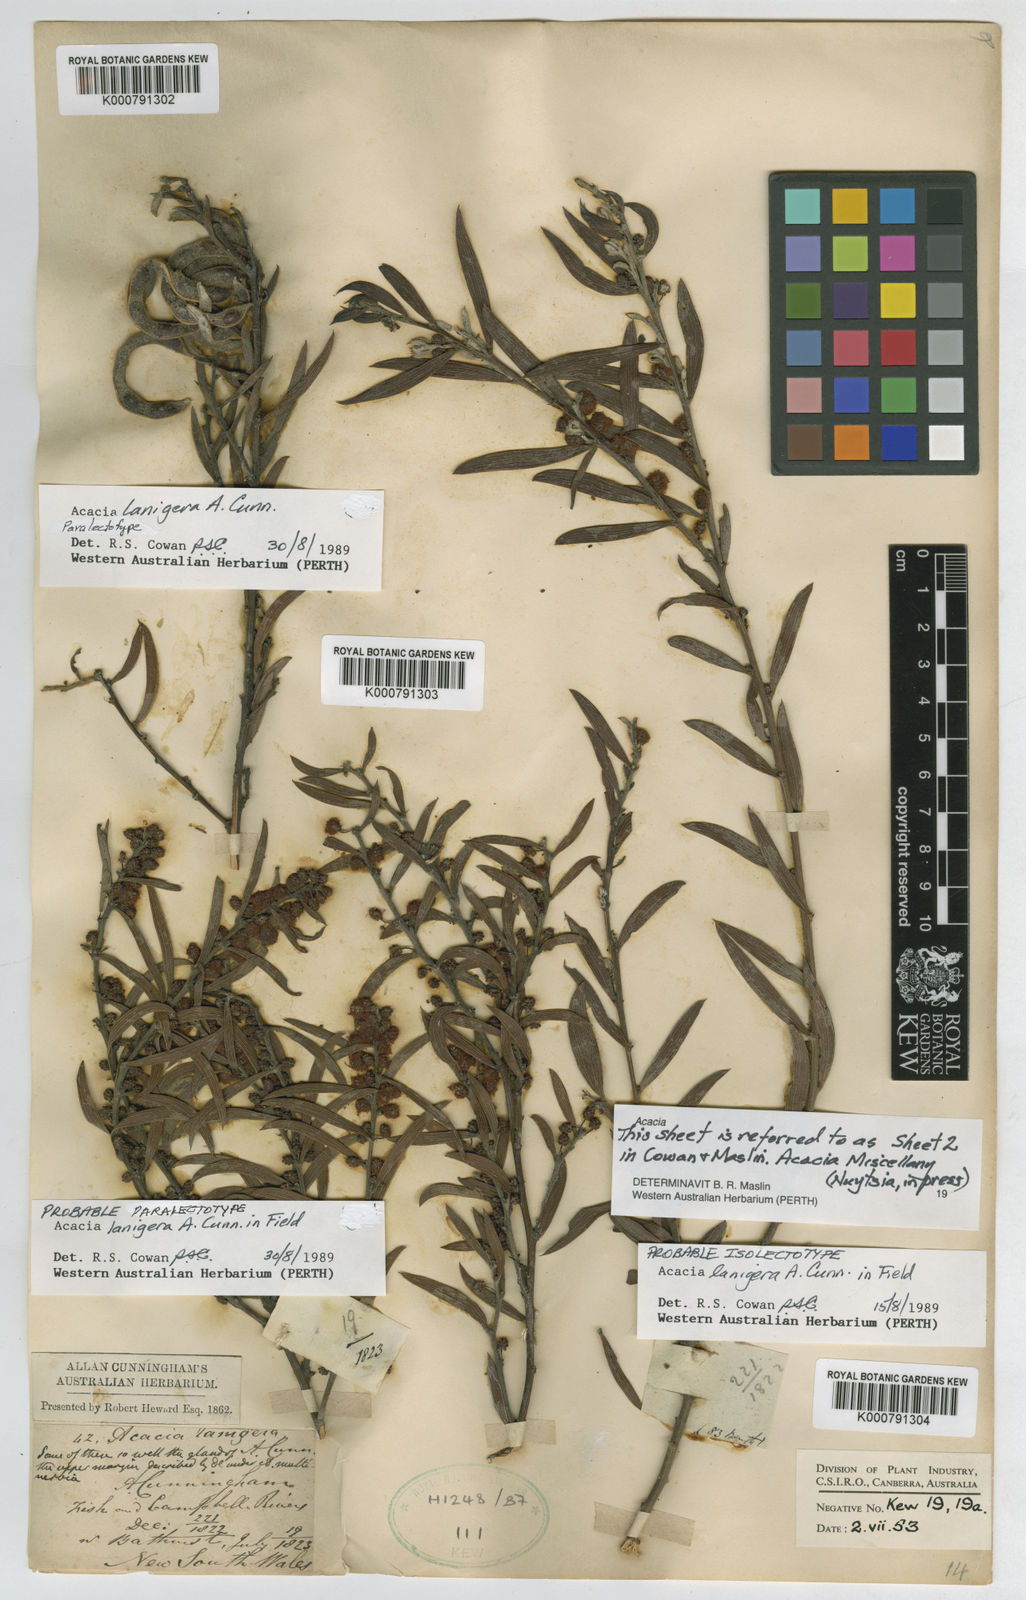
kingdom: Plantae
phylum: Tracheophyta
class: Magnoliopsida
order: Fabales
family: Fabaceae
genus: Acacia
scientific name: Acacia lanigera
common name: Hairy wattle
